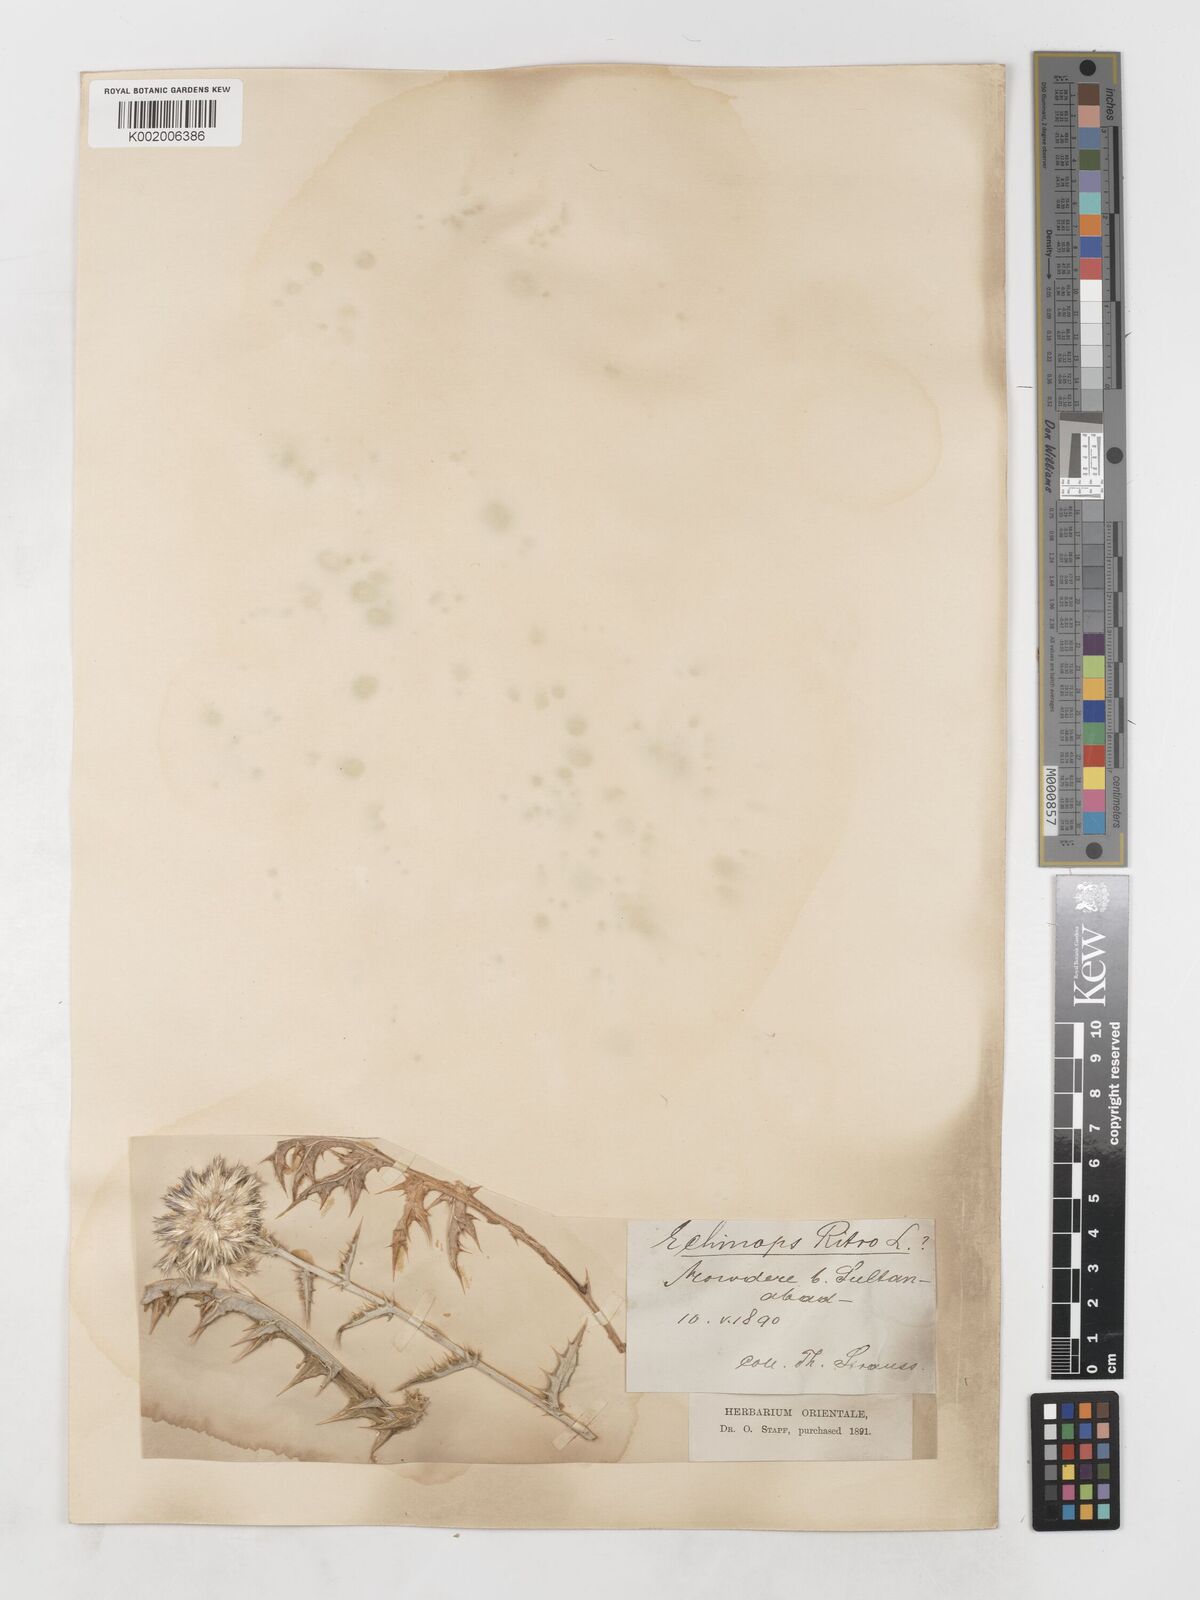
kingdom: Plantae
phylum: Tracheophyta
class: Magnoliopsida
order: Asterales
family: Asteraceae
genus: Echinops
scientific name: Echinops ritrodes
